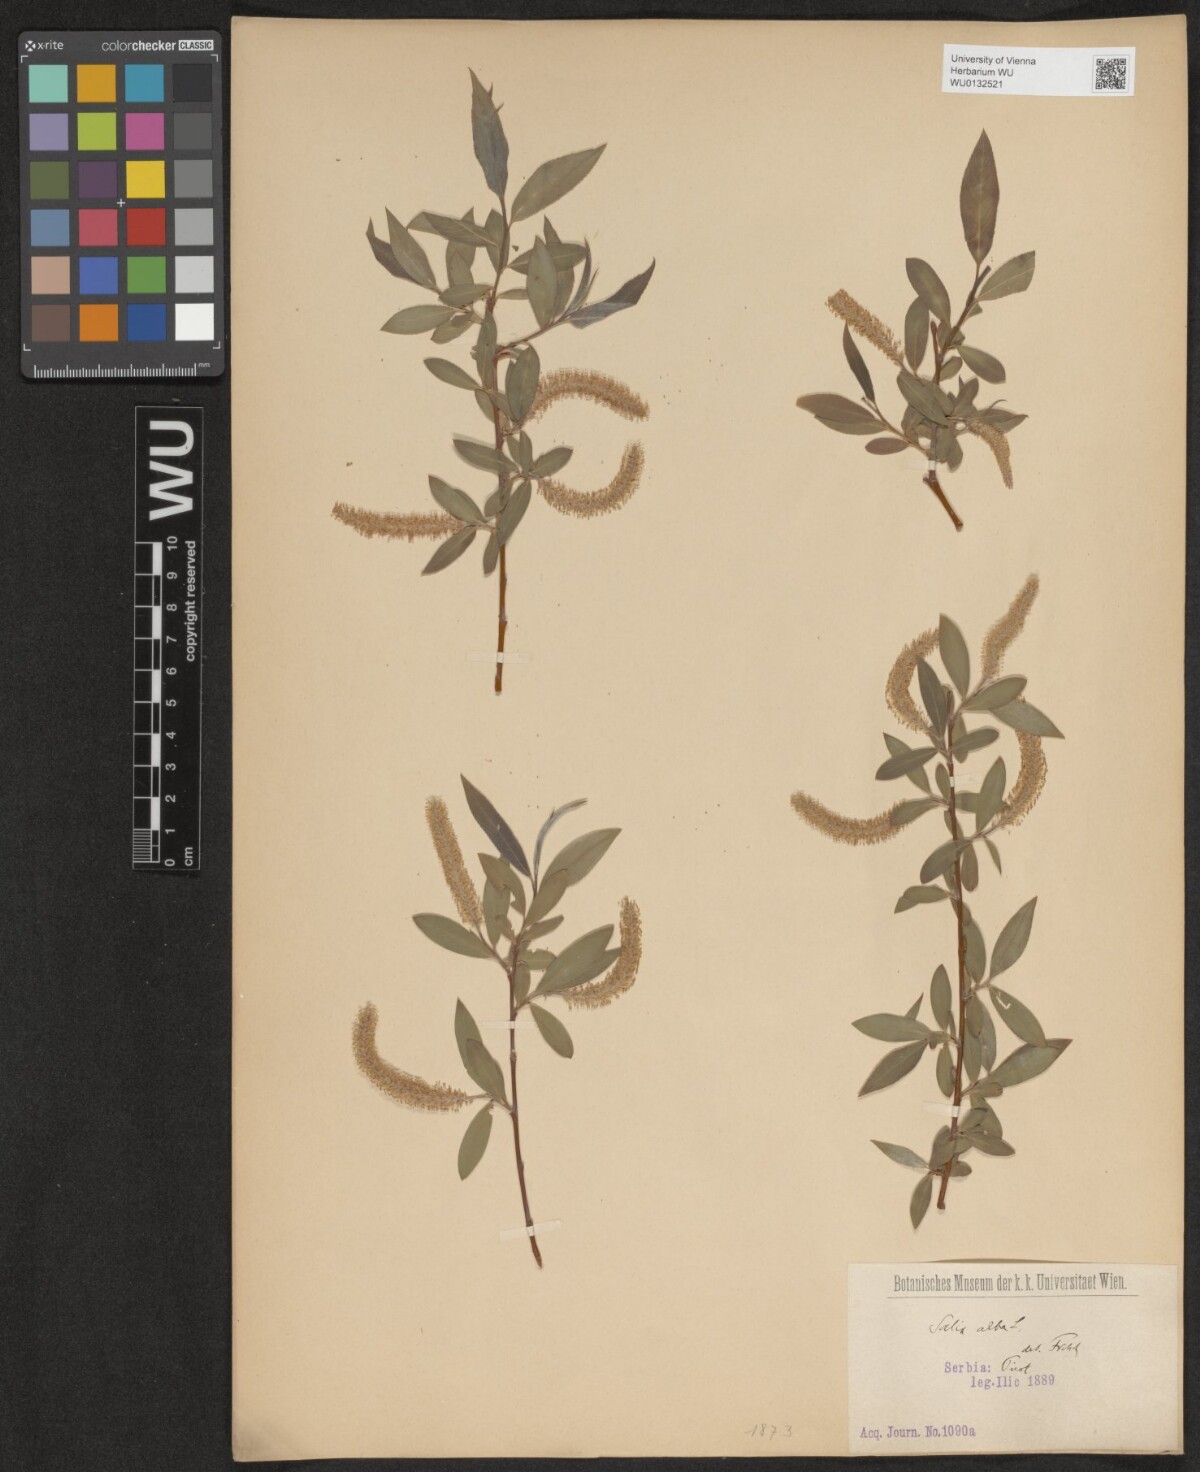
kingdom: Plantae
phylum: Tracheophyta
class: Magnoliopsida
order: Malpighiales
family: Salicaceae
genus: Salix
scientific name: Salix alba
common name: White willow
